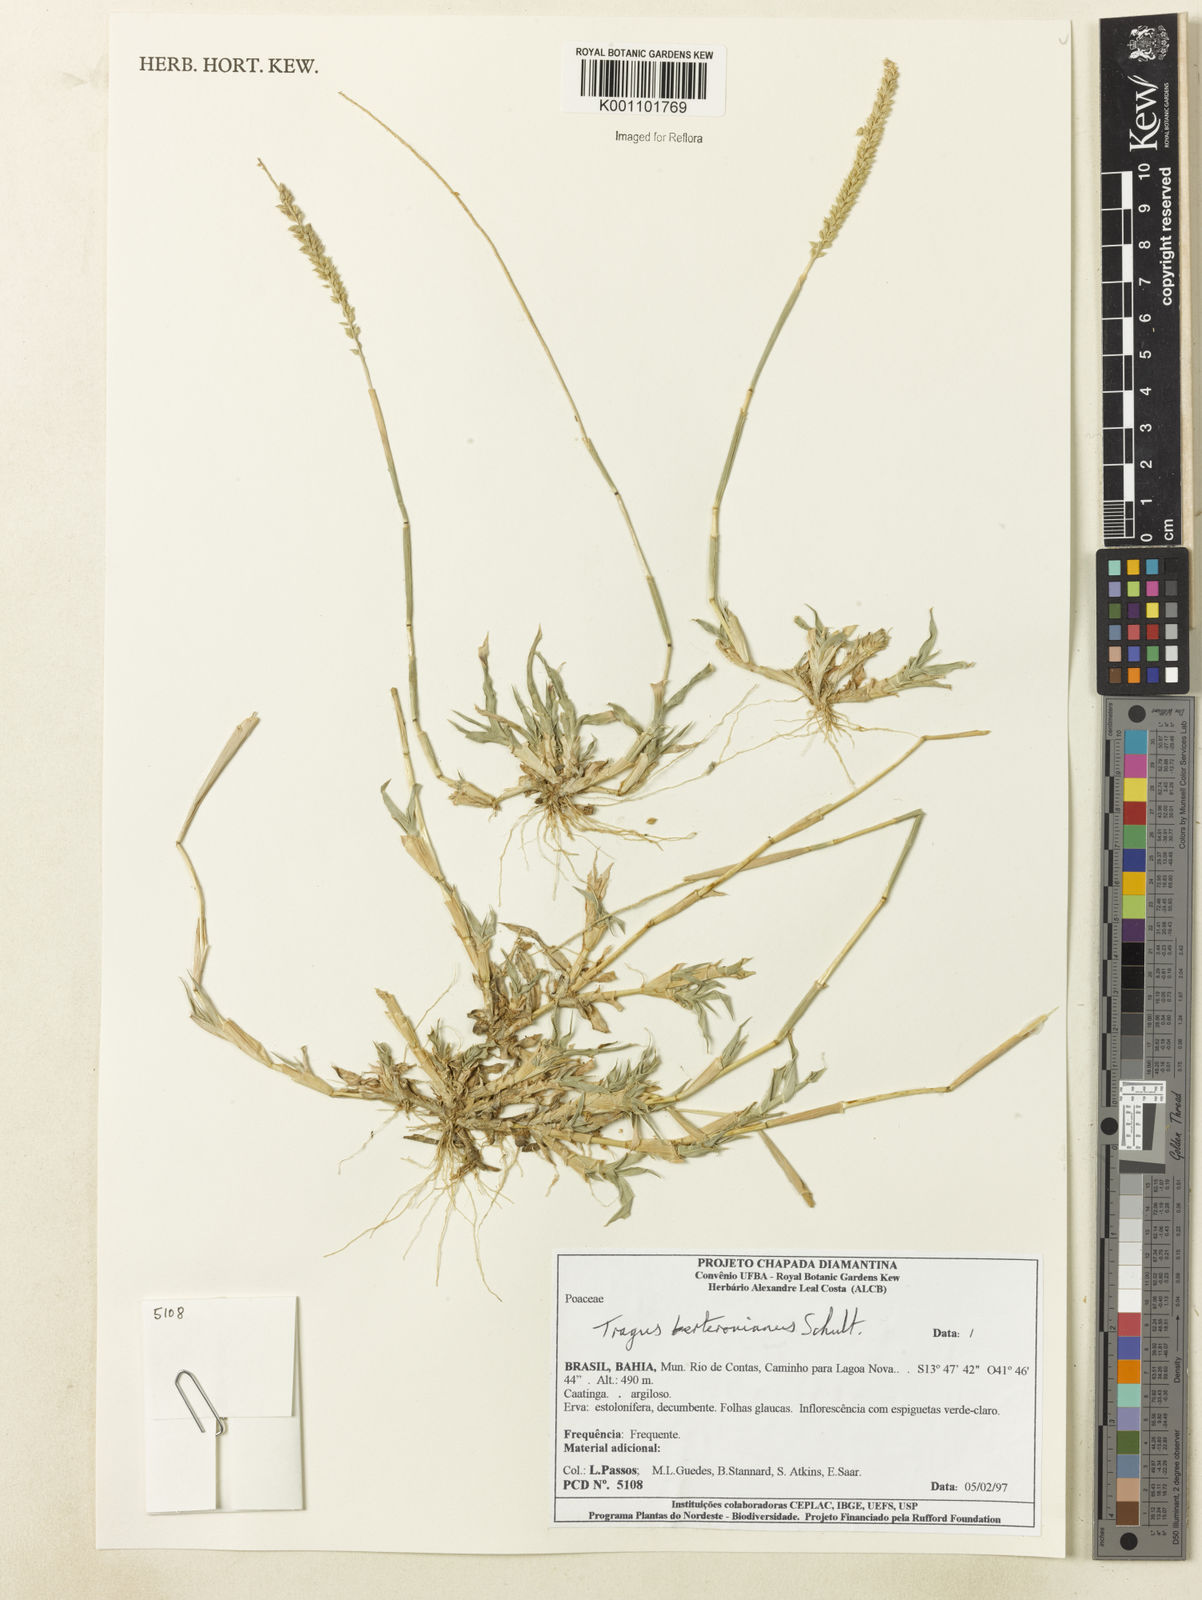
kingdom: Plantae
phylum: Tracheophyta
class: Liliopsida
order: Poales
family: Poaceae
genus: Tragus
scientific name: Tragus berteronianus
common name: African bur-grass
